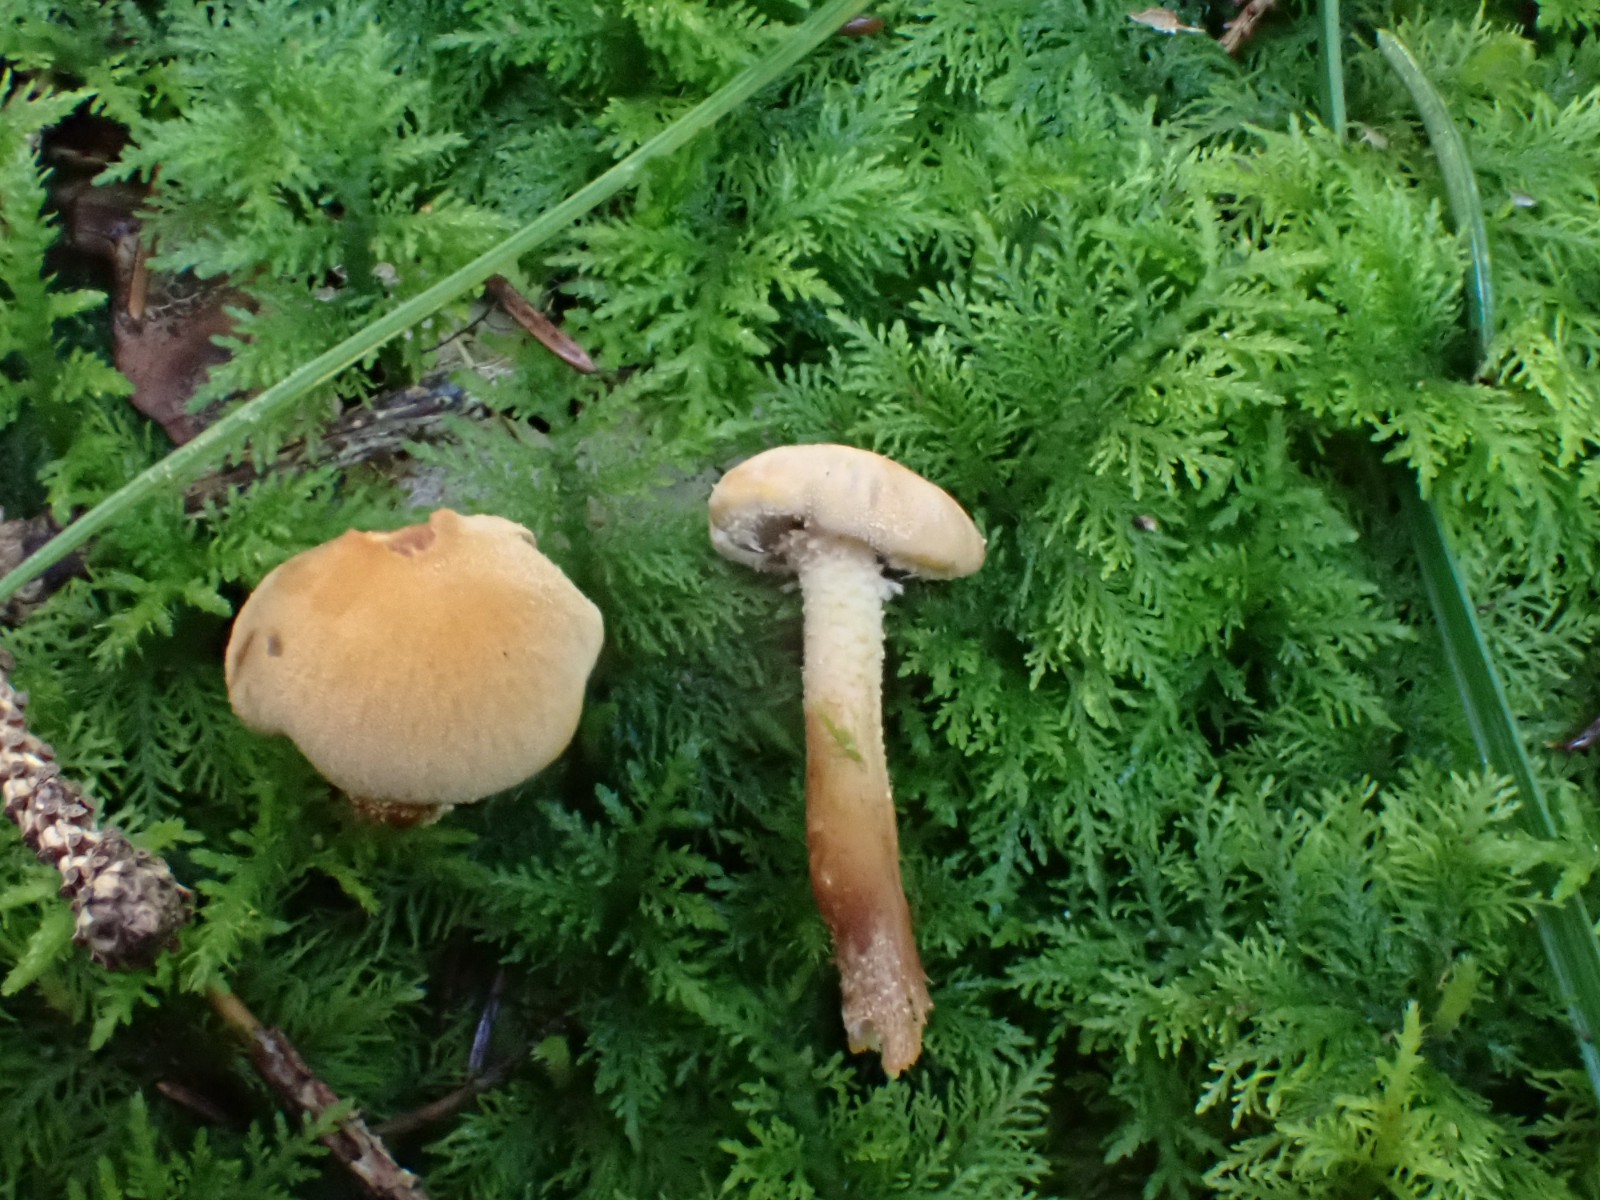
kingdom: Fungi
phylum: Basidiomycota
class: Agaricomycetes
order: Agaricales
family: Tricholomataceae
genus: Cystoderma
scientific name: Cystoderma amianthinum
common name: okkergul grynhat
